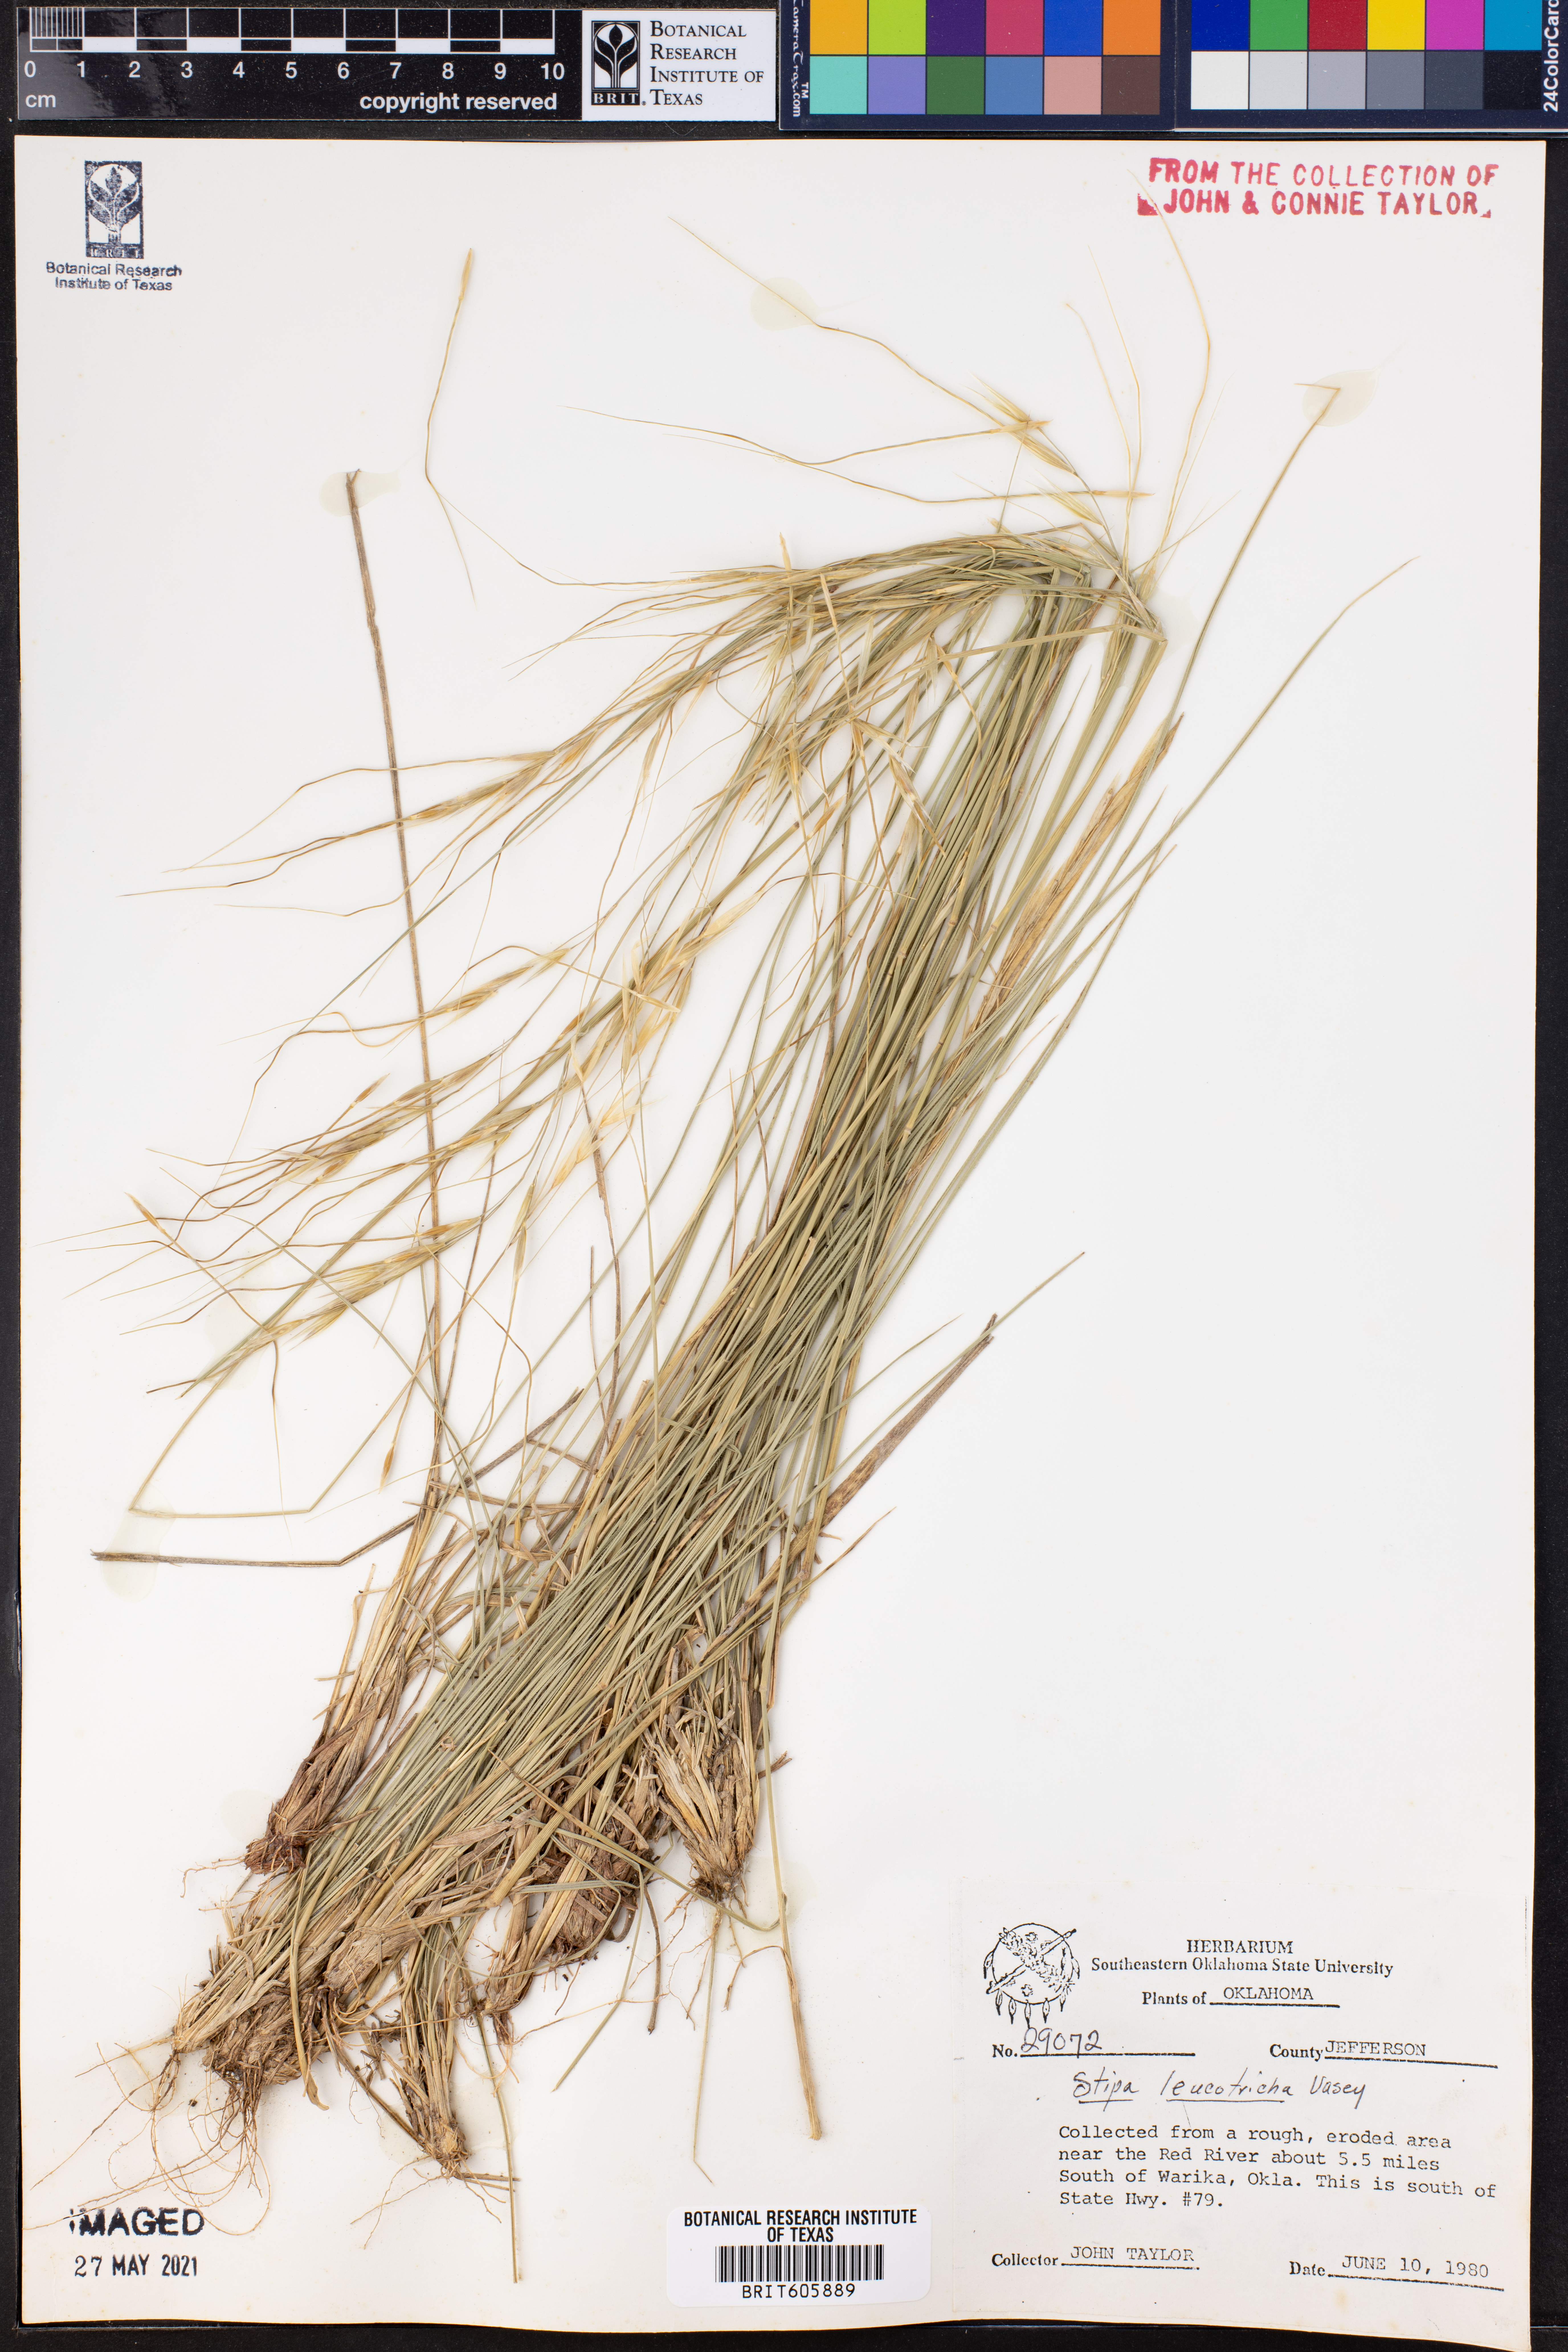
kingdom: Plantae
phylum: Tracheophyta
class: Liliopsida
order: Poales
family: Poaceae
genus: Nassella
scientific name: Nassella leucotricha
